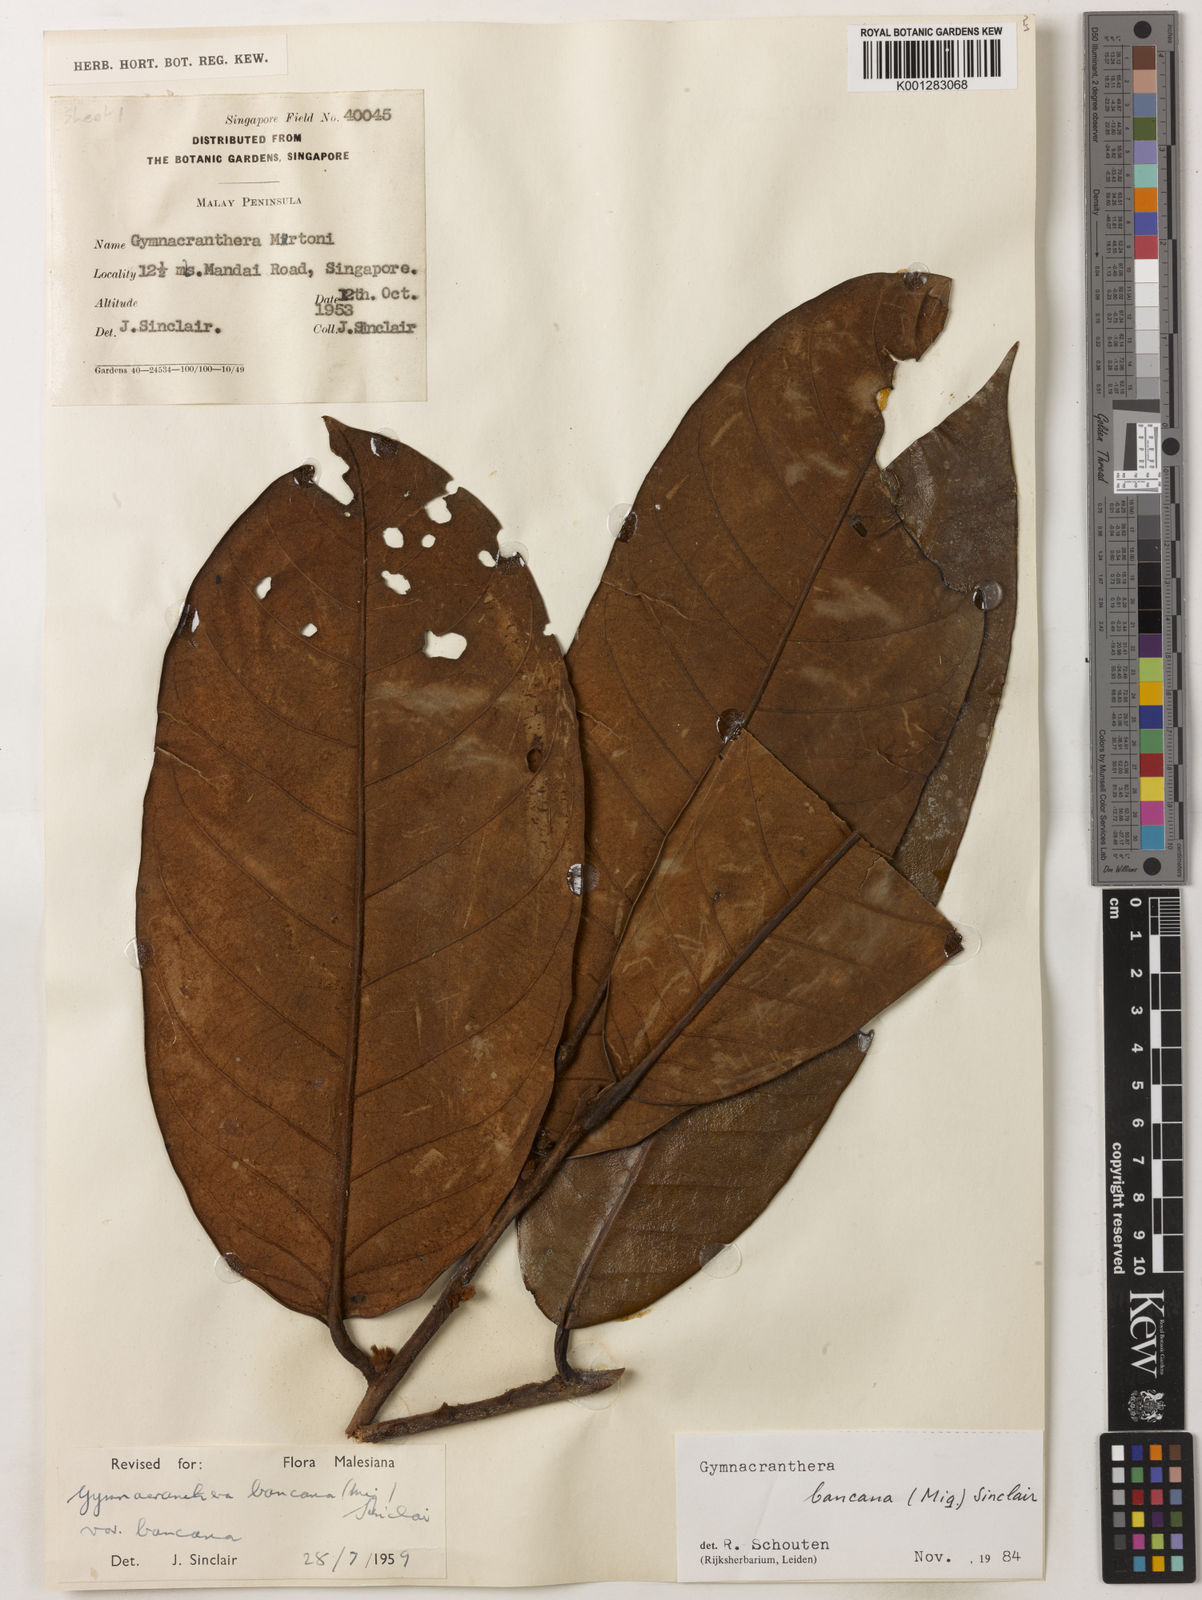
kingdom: Plantae
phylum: Tracheophyta
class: Magnoliopsida
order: Magnoliales
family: Myristicaceae
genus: Gymnacranthera
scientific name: Gymnacranthera bancana
